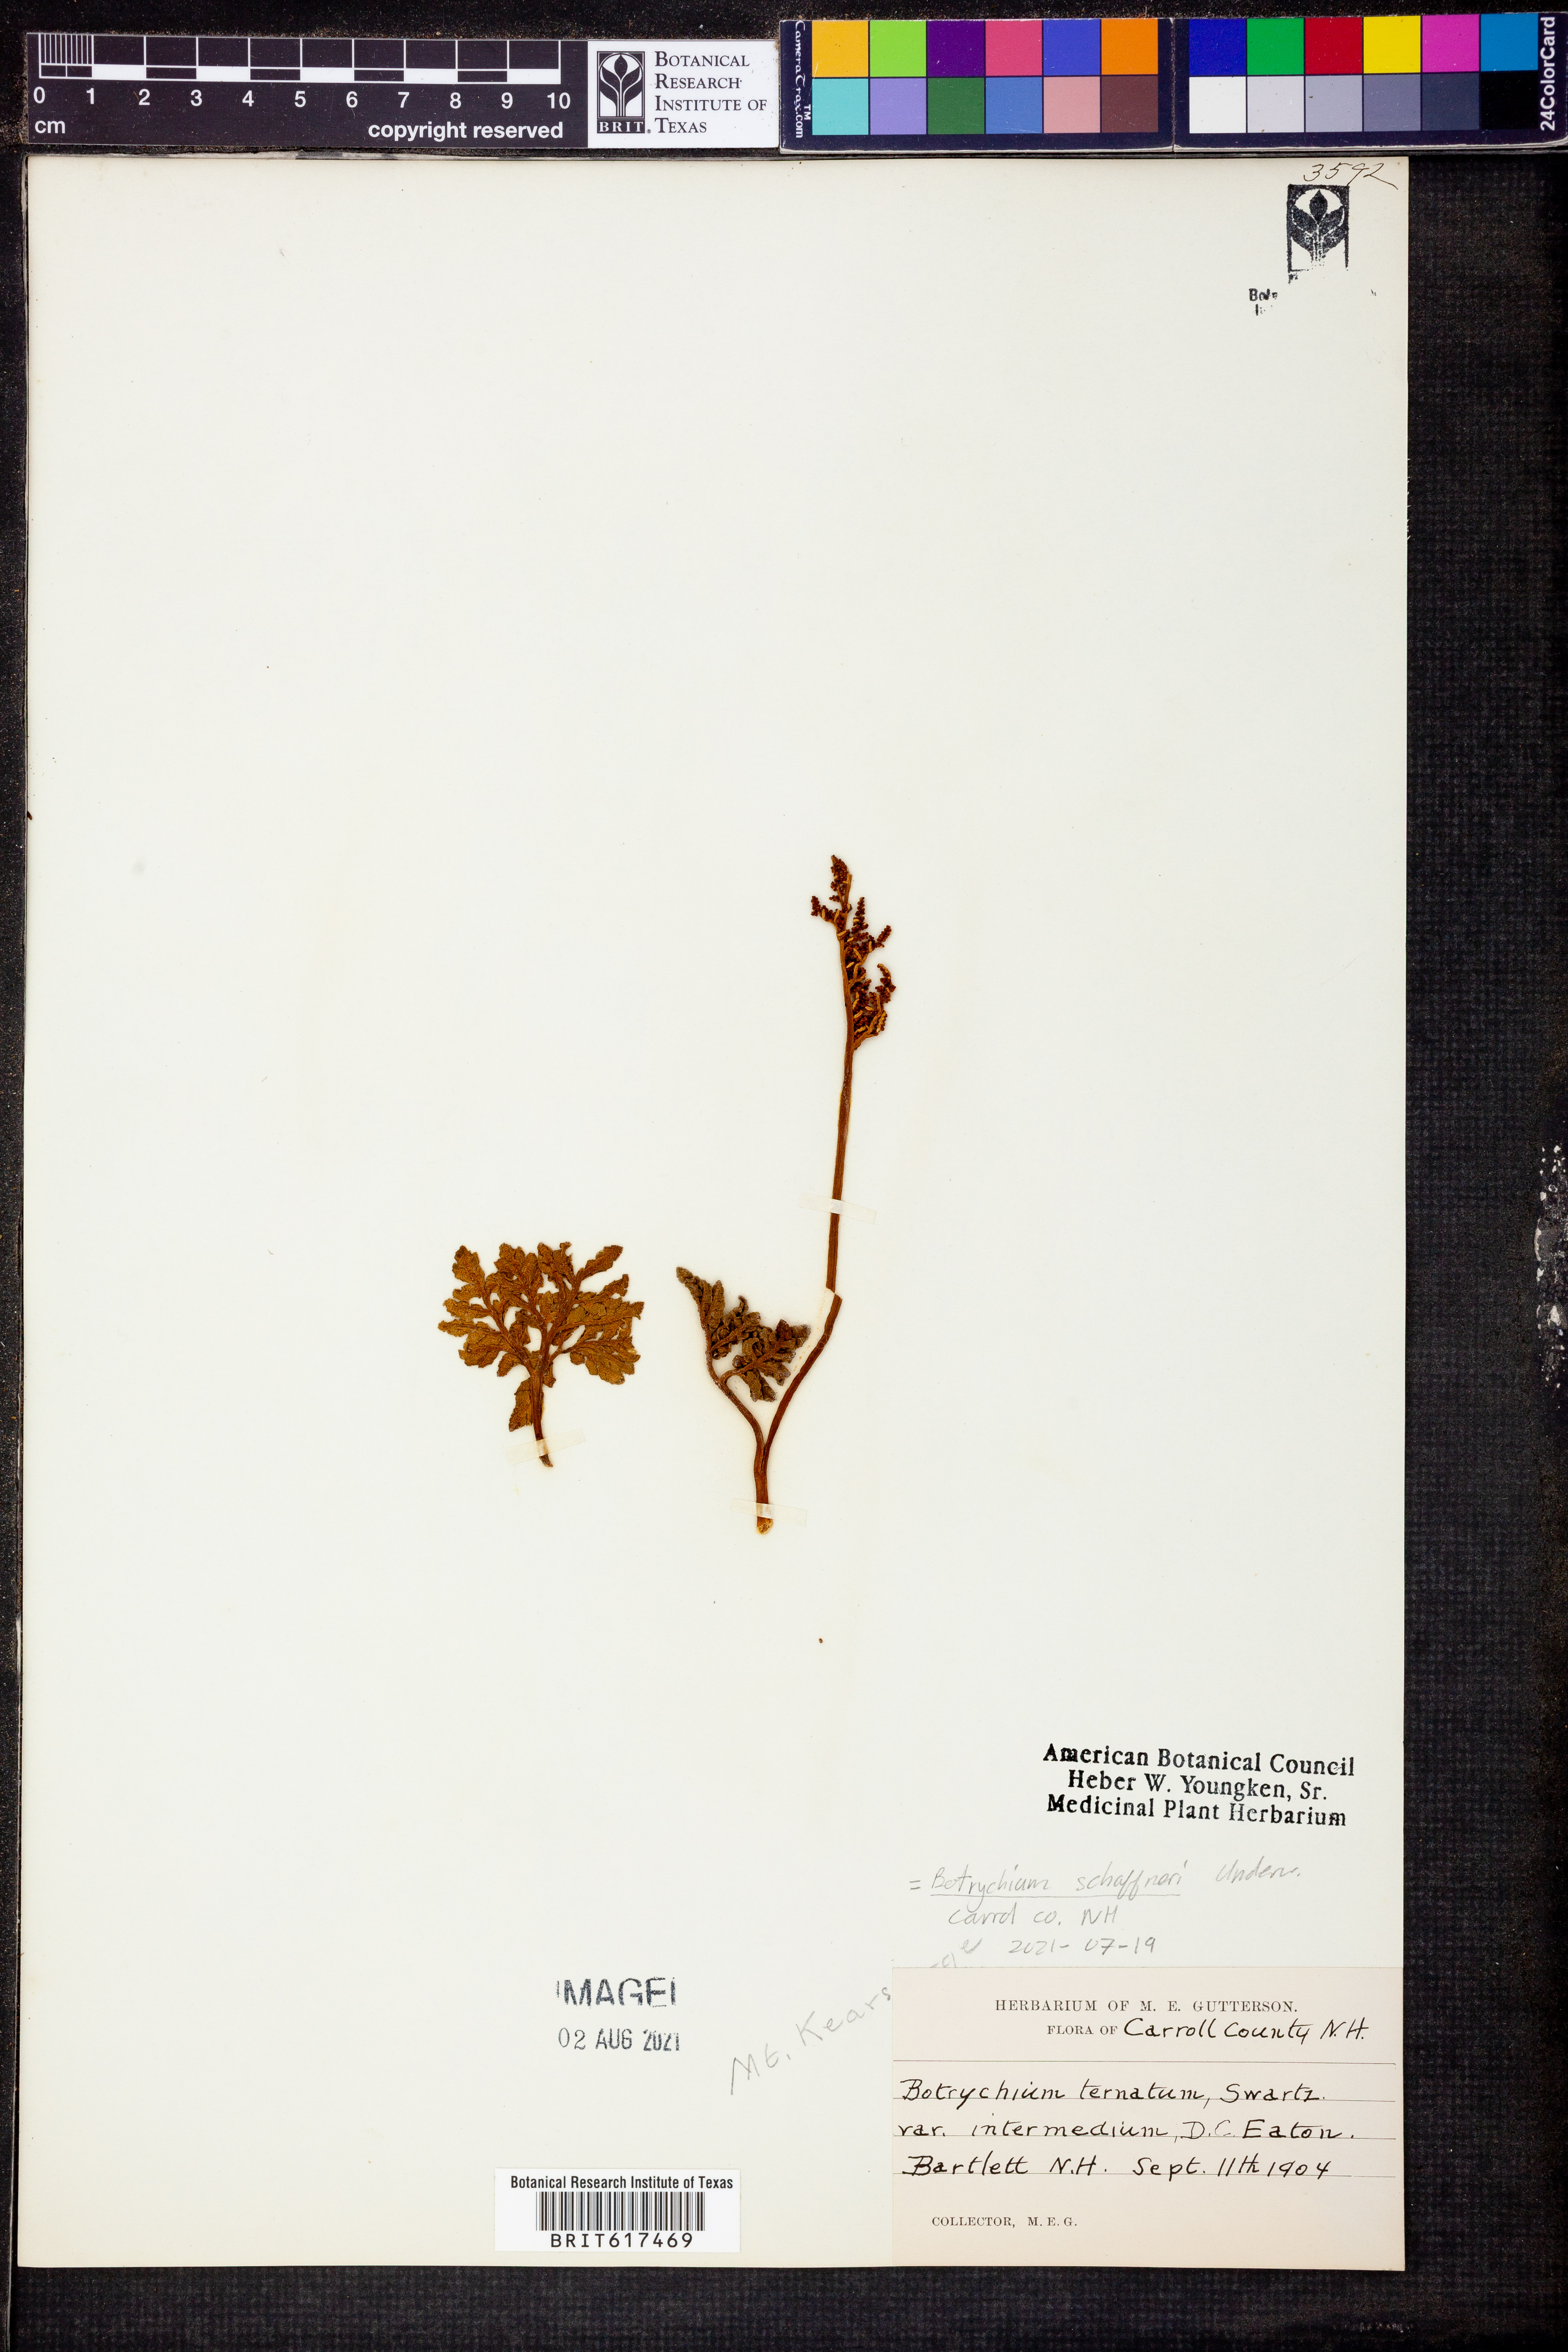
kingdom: Plantae
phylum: Tracheophyta
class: Polypodiopsida
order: Ophioglossales
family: Ophioglossaceae
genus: Sceptridium
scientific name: Sceptridium schaffneri
